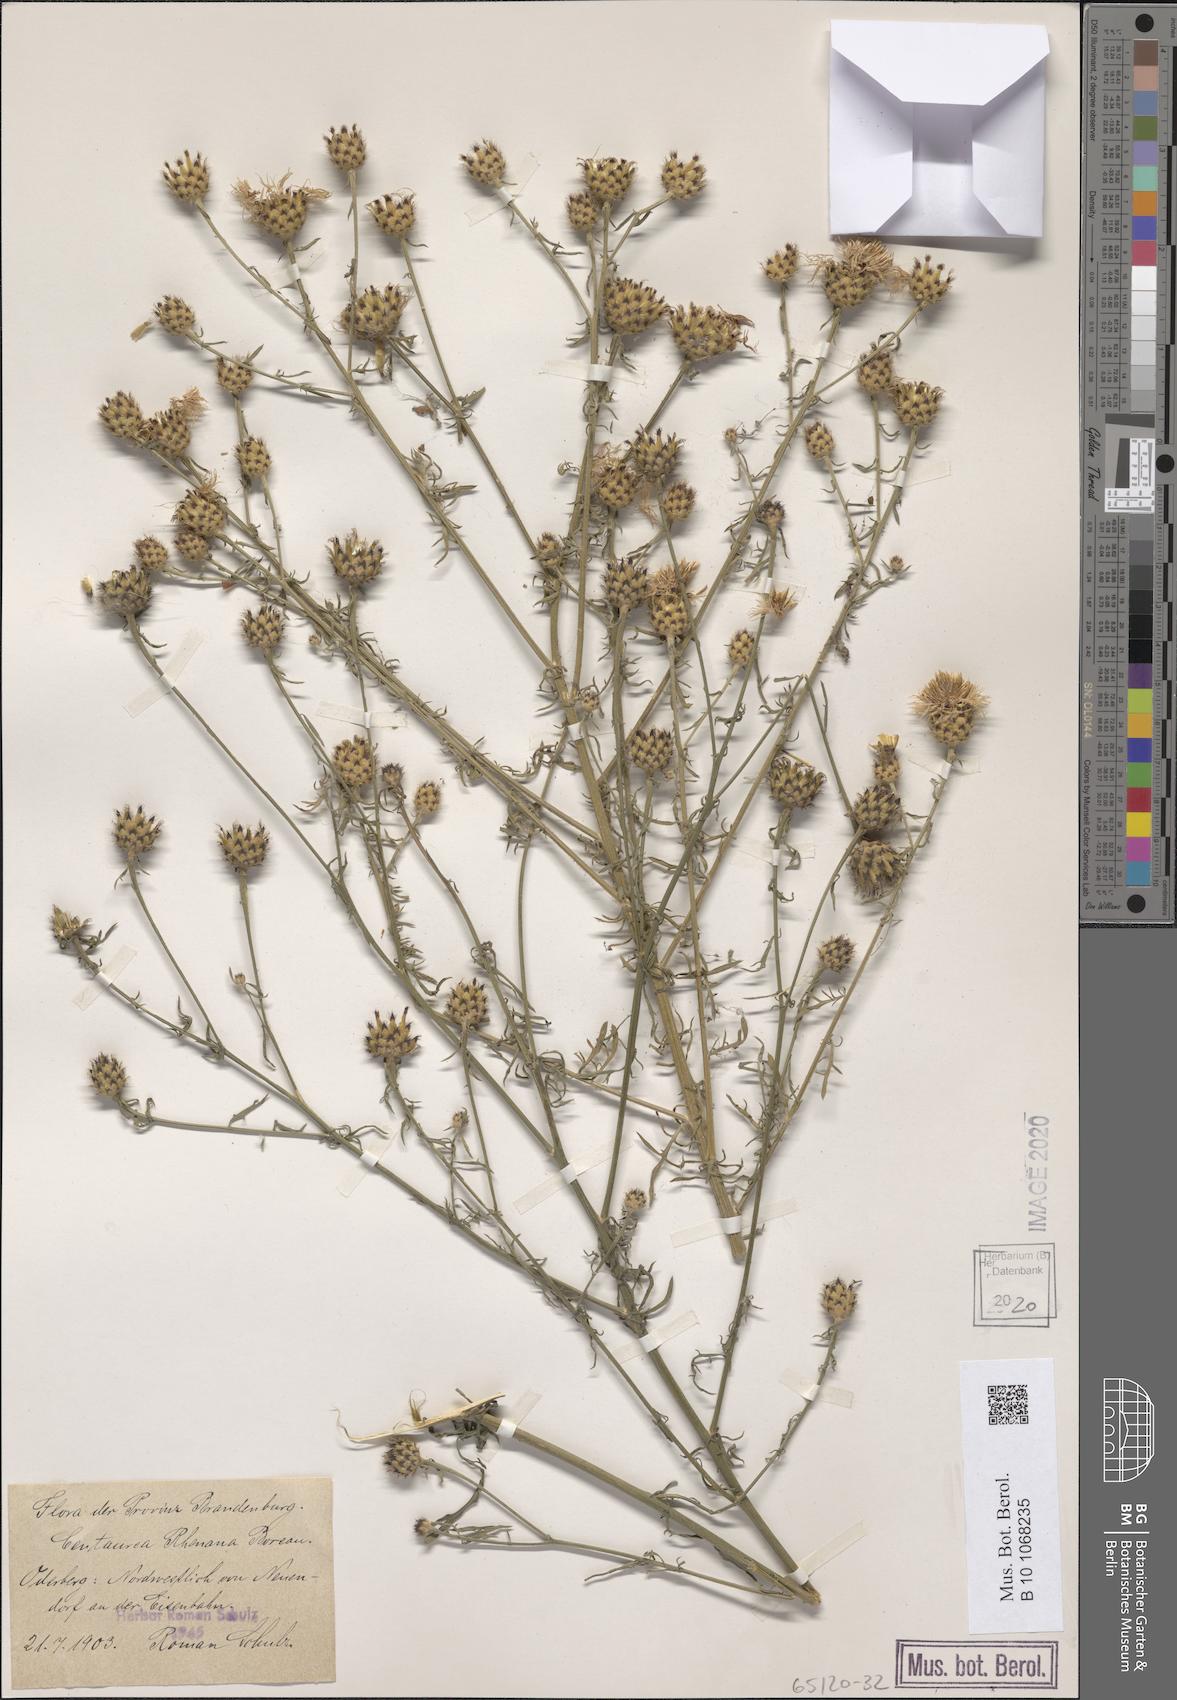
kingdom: Plantae
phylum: Tracheophyta
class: Magnoliopsida
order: Asterales
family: Asteraceae
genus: Centaurea
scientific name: Centaurea stoebe
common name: Spotted knapweed
